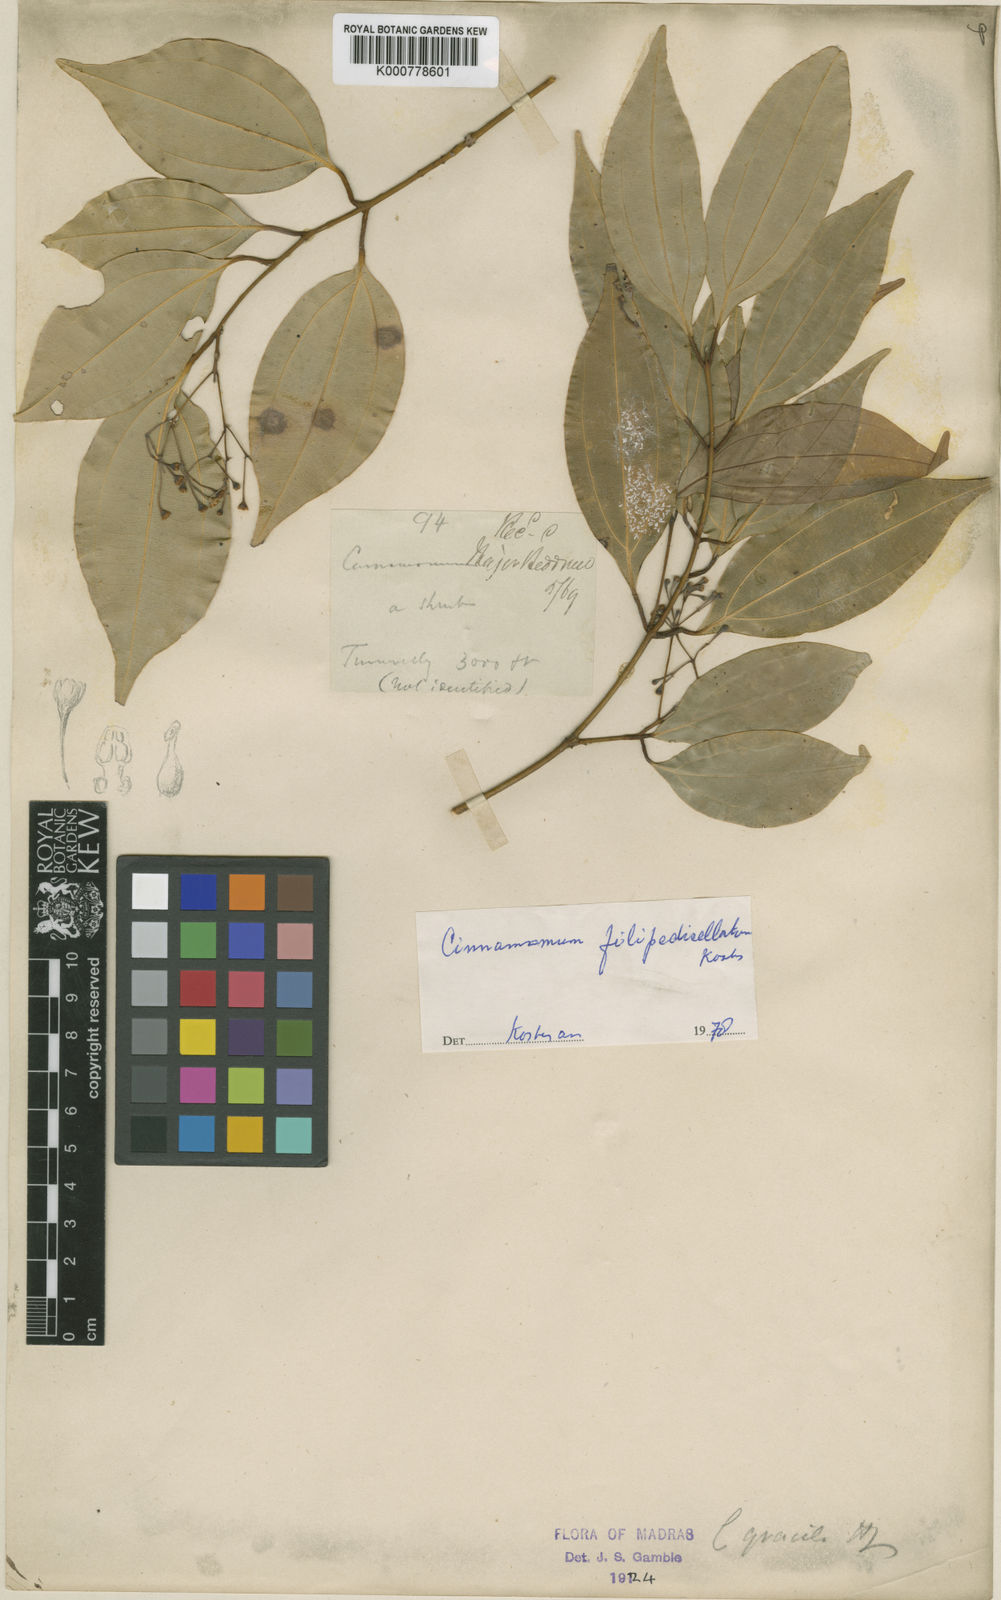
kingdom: Plantae
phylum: Tracheophyta
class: Magnoliopsida
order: Laurales
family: Lauraceae
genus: Cinnamomum
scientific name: Cinnamomum filipedicellatum
